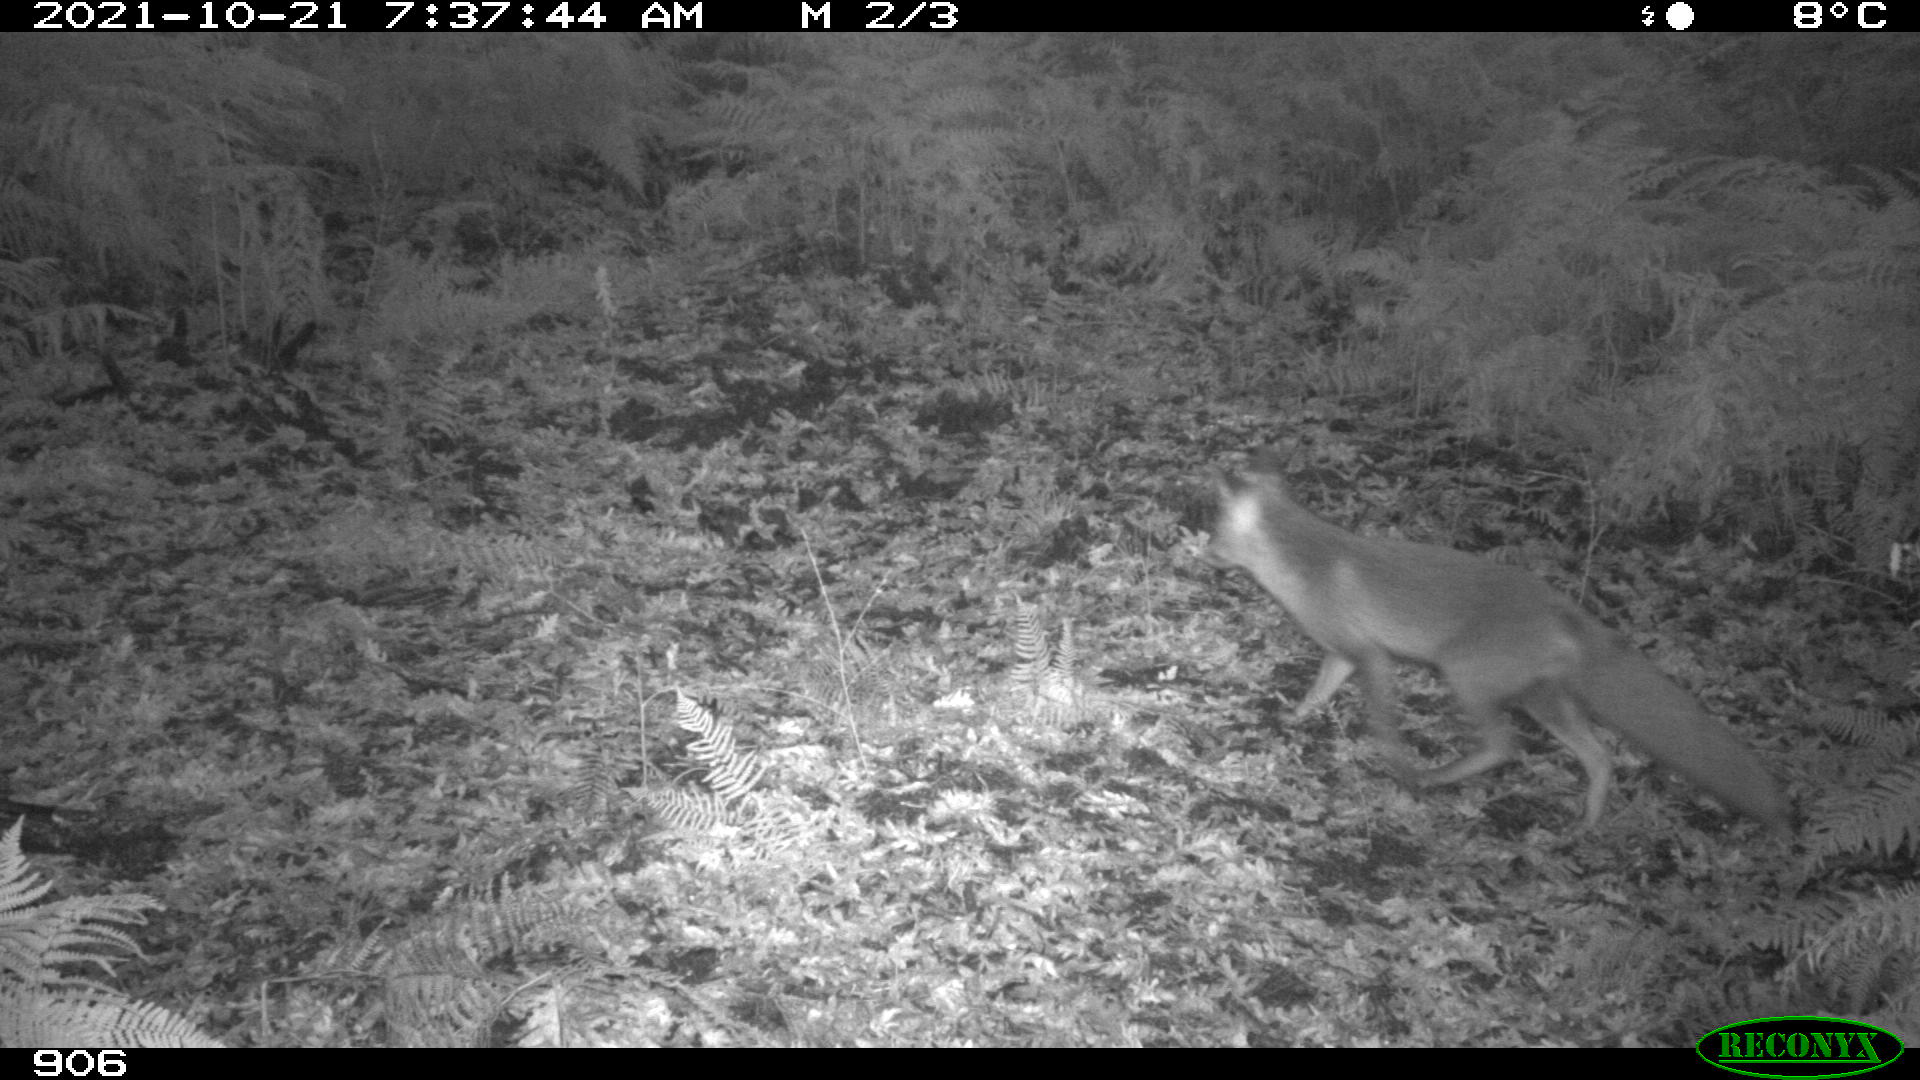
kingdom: Animalia
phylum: Chordata
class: Mammalia
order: Carnivora
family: Canidae
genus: Vulpes
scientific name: Vulpes vulpes
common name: Red fox
